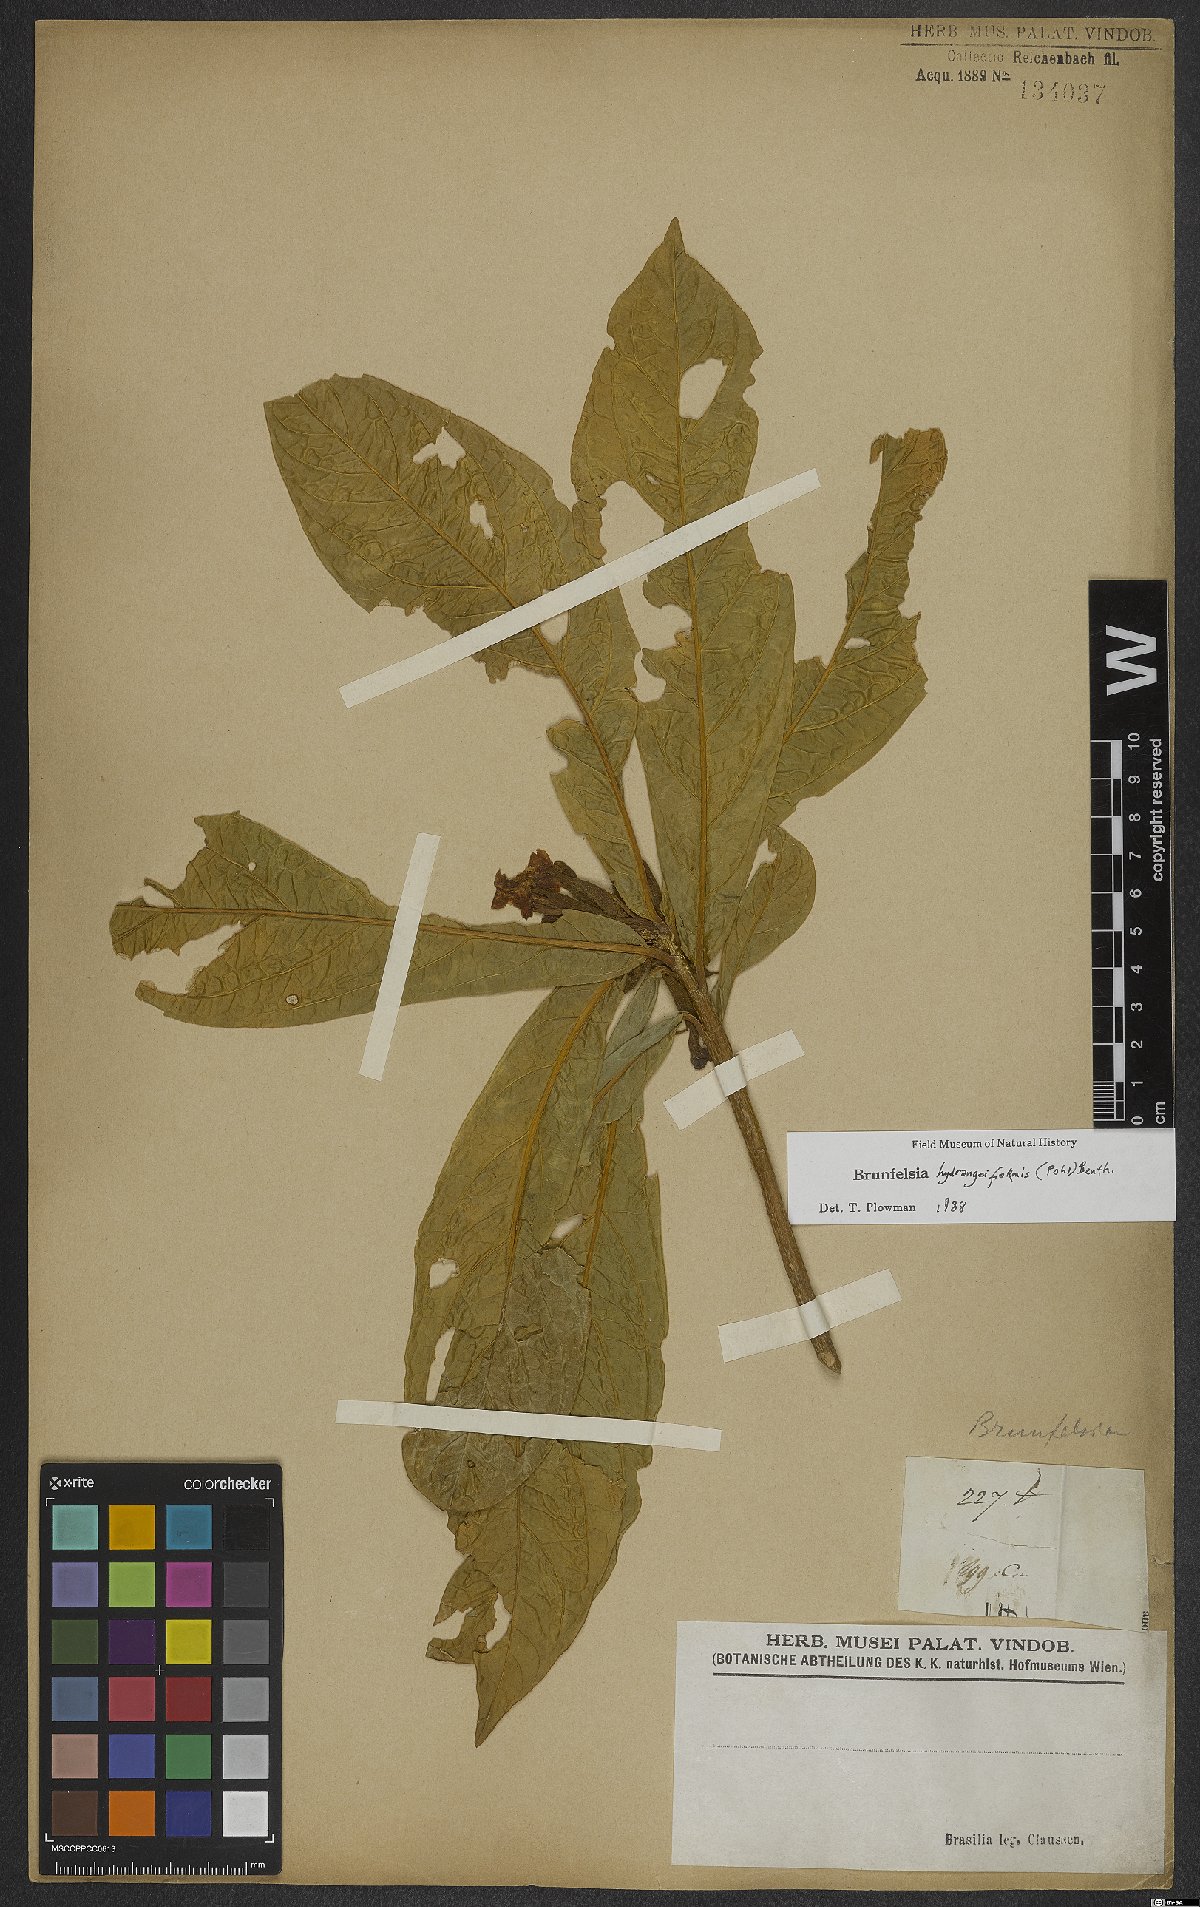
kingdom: Plantae
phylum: Tracheophyta
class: Magnoliopsida
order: Solanales
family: Solanaceae
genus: Brunfelsia
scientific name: Brunfelsia hydrangeiformis
